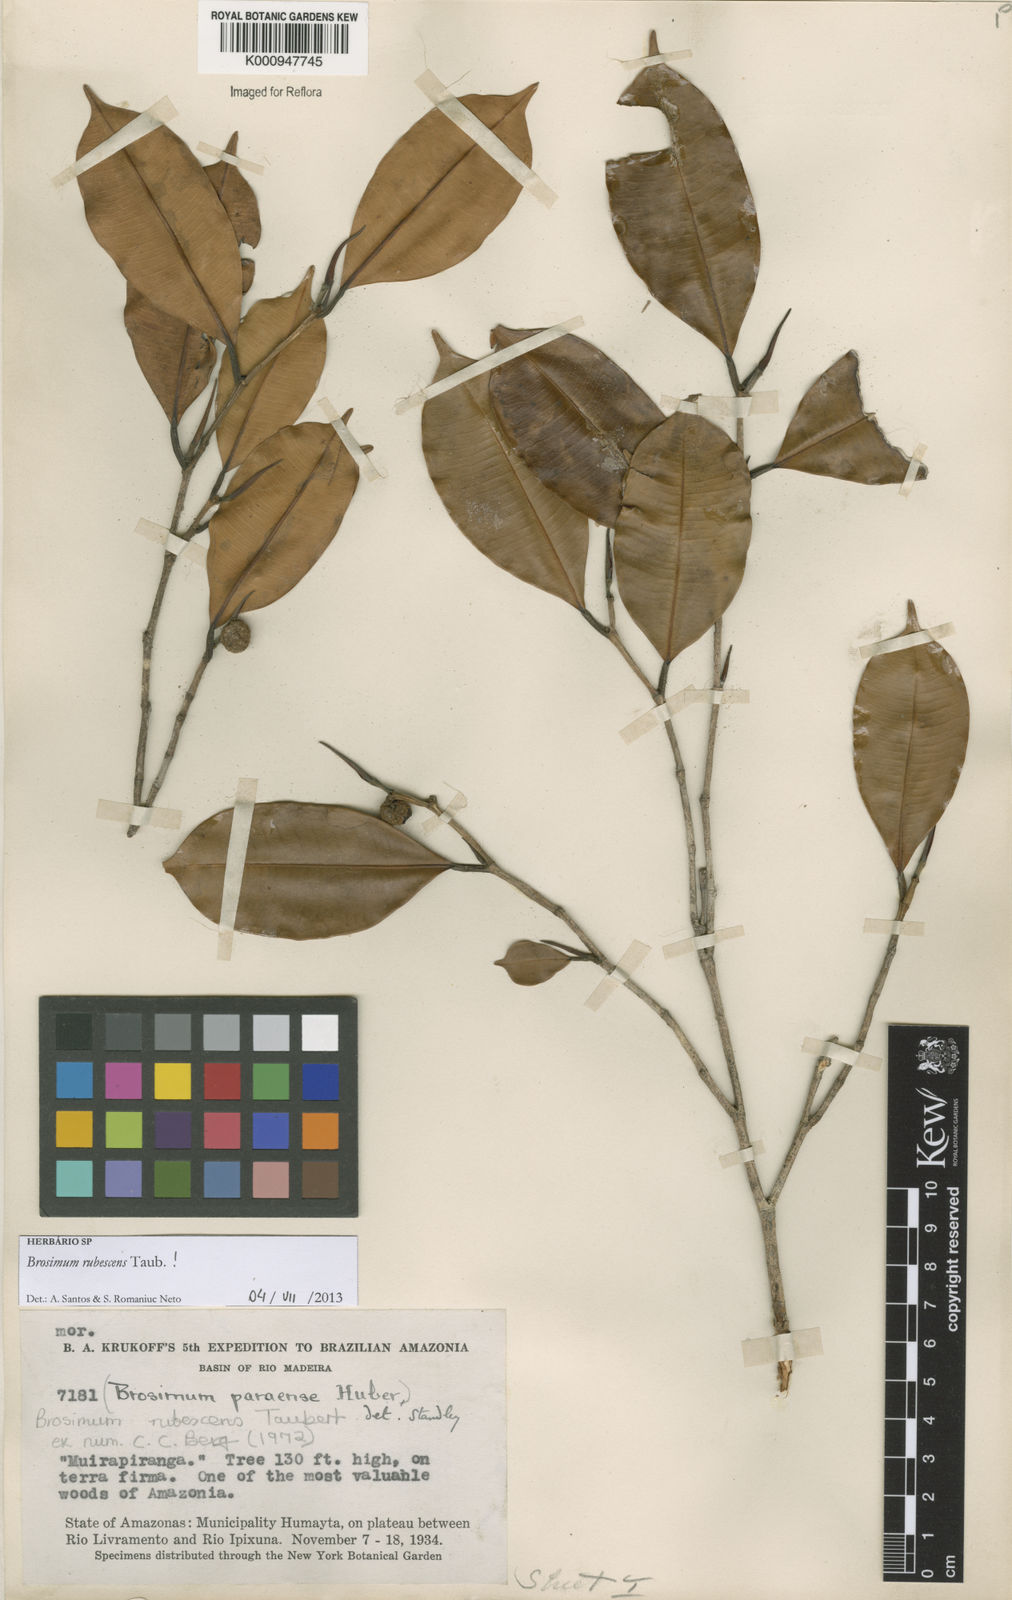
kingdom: Plantae
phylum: Tracheophyta
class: Magnoliopsida
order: Rosales
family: Moraceae
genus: Brosimum
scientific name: Brosimum rubescens
